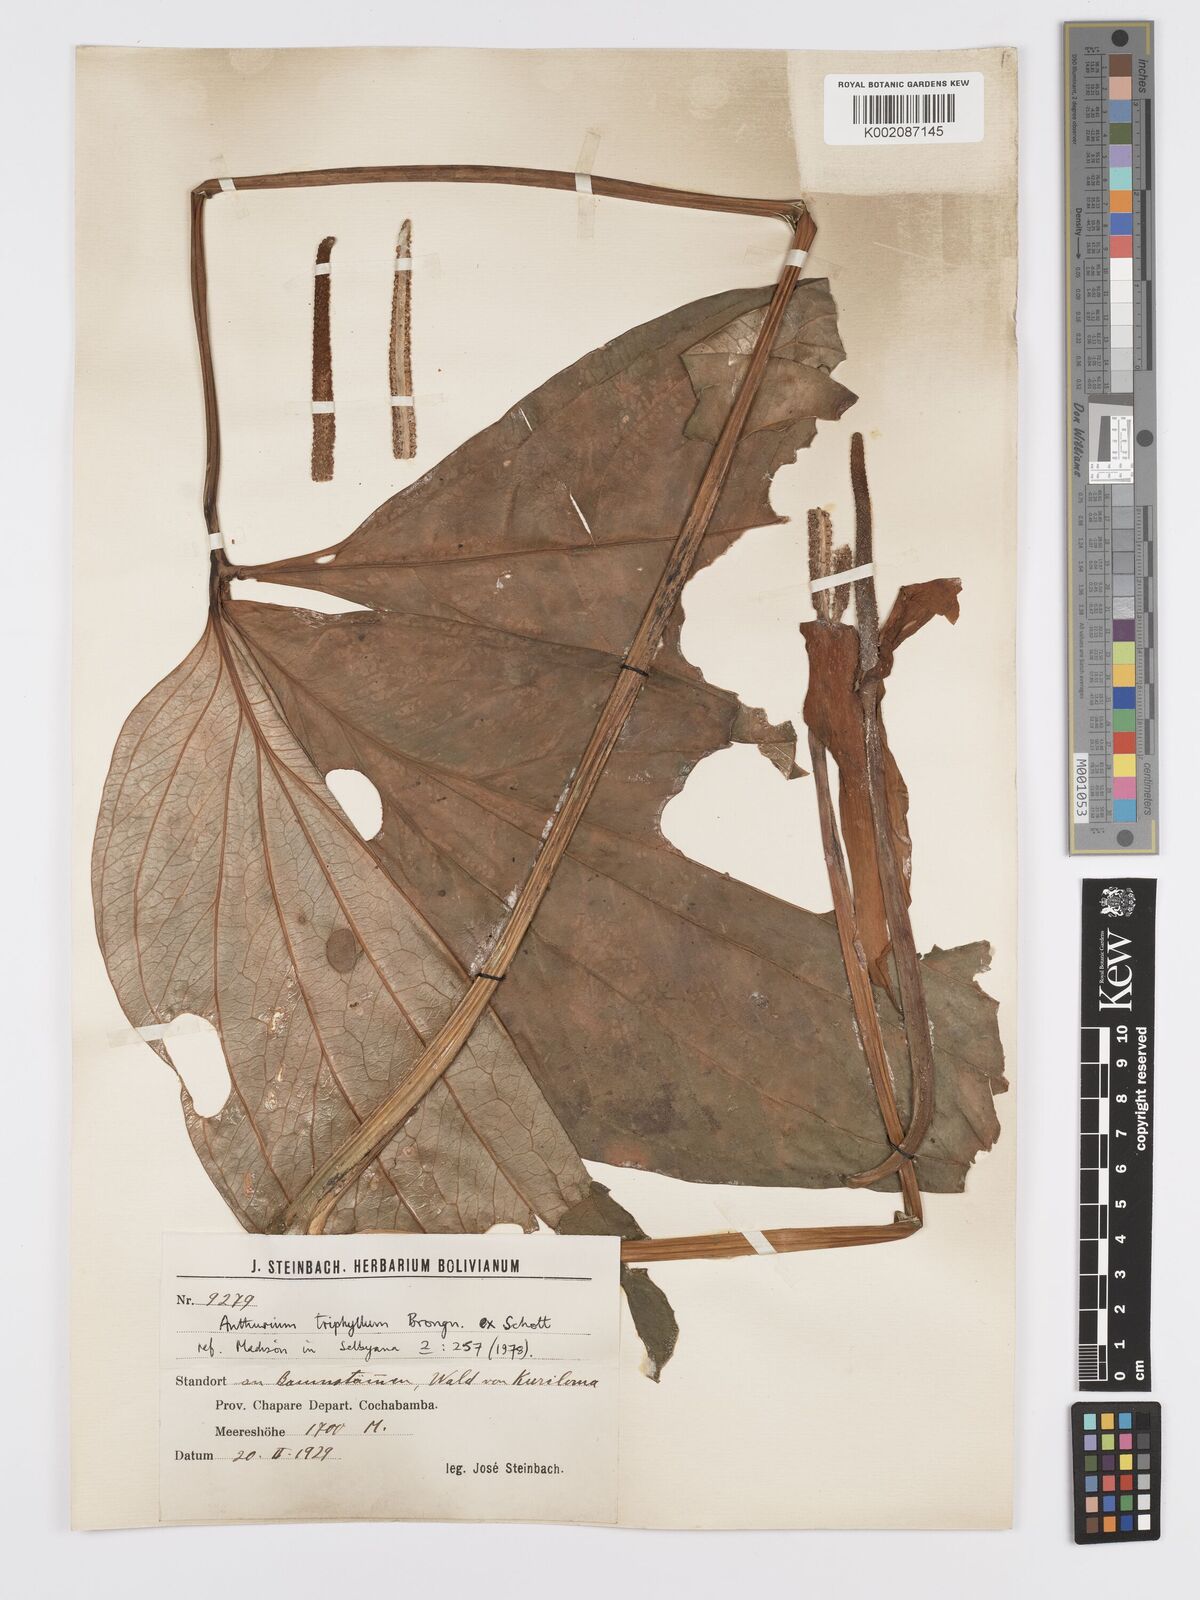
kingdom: Plantae
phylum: Tracheophyta
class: Liliopsida
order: Alismatales
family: Araceae
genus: Anthurium
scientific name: Anthurium triphyllum
